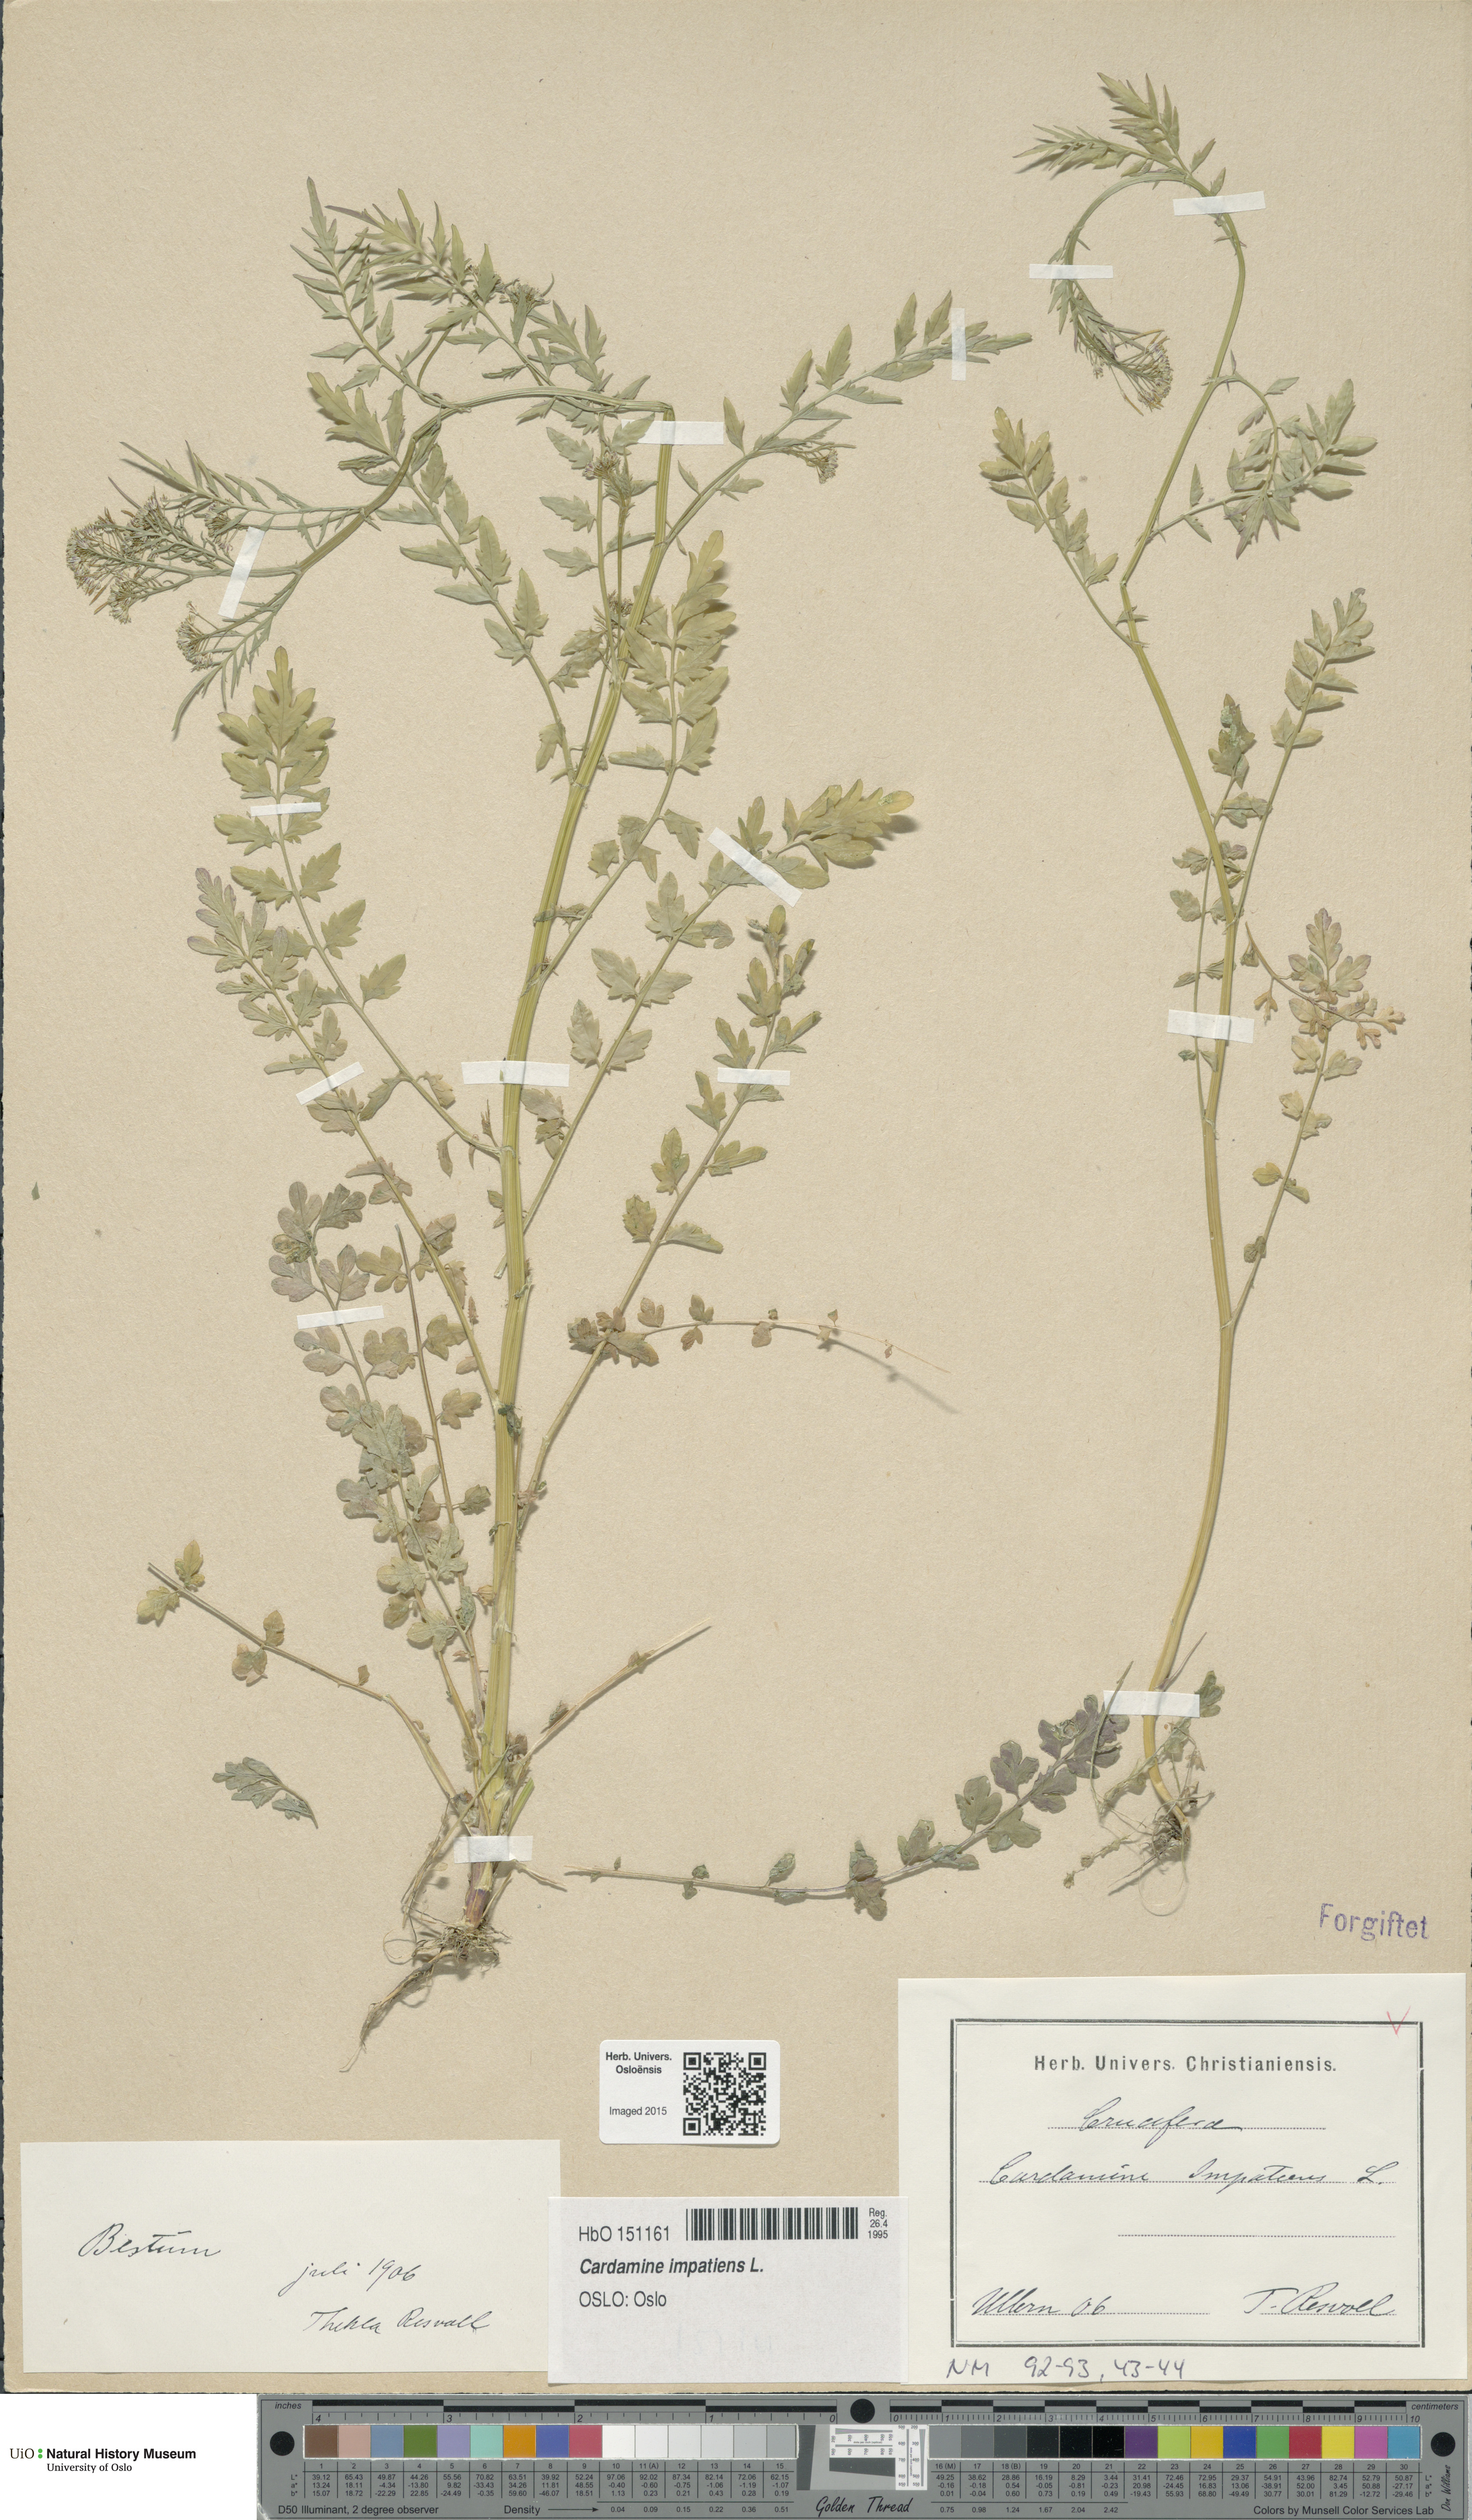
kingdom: Plantae
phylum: Tracheophyta
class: Magnoliopsida
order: Brassicales
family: Brassicaceae
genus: Cardamine
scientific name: Cardamine impatiens
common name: Narrow-leaved bitter-cress
